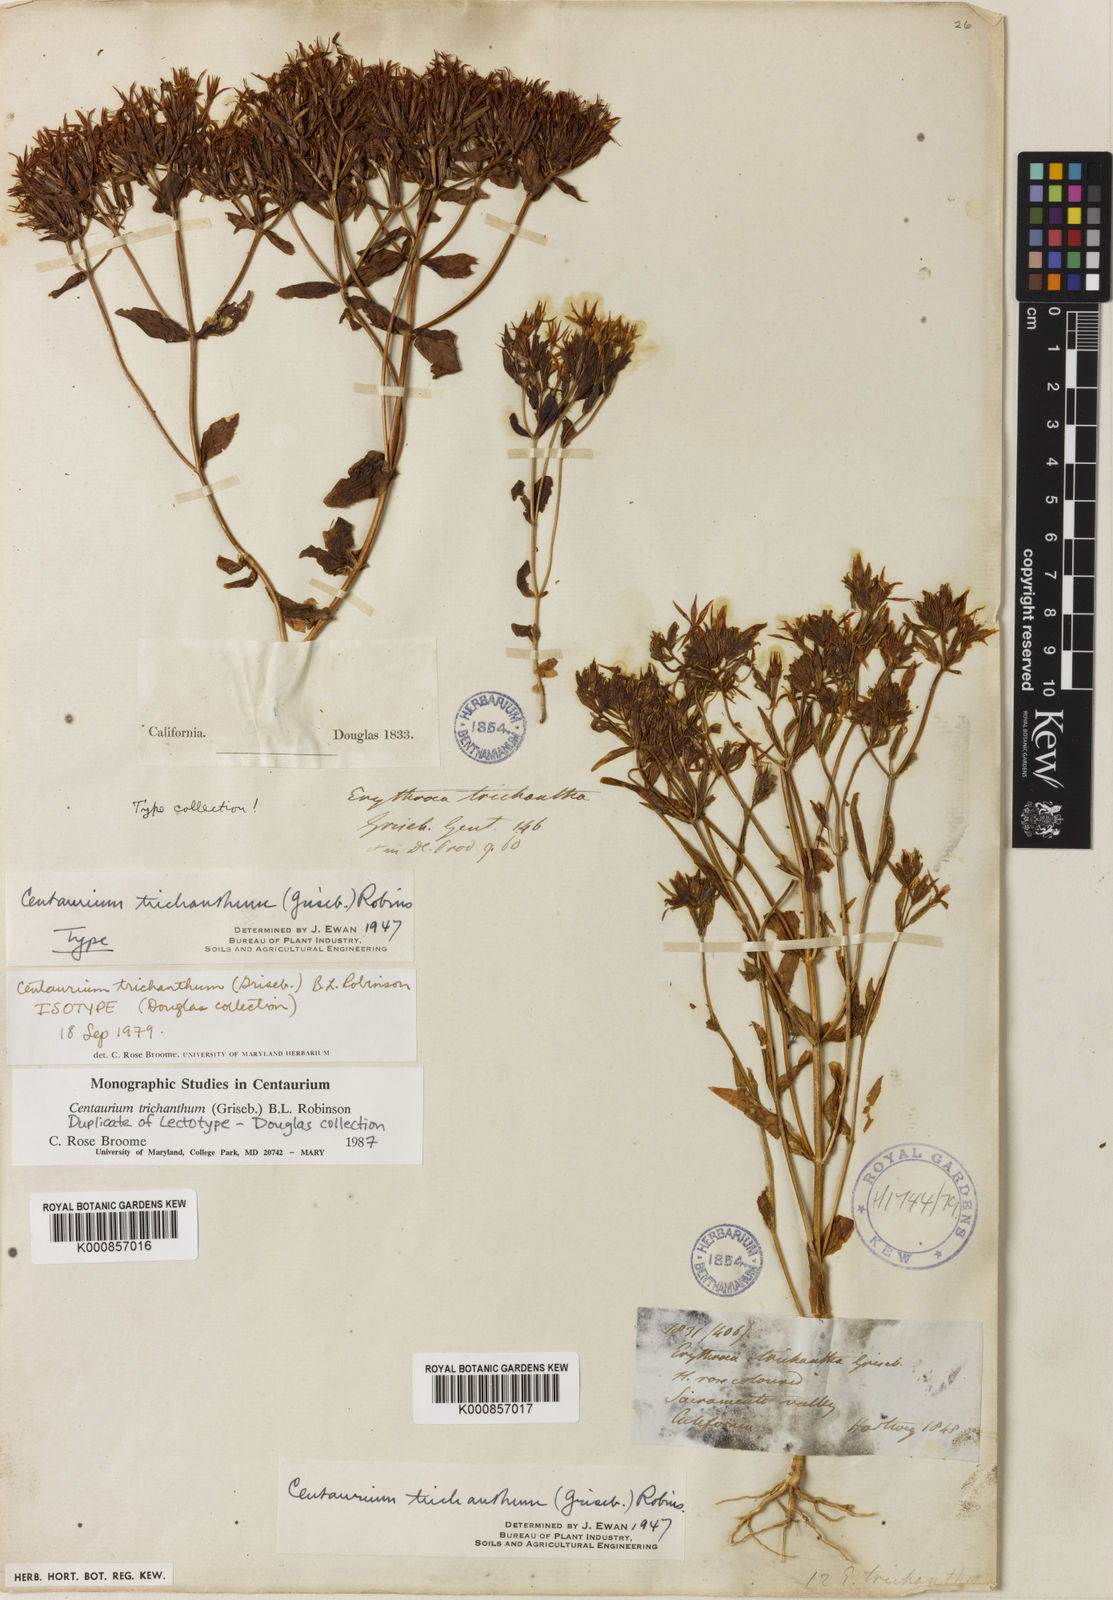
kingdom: Plantae
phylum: Tracheophyta
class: Magnoliopsida
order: Gentianales
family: Gentianaceae
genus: Zeltnera
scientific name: Zeltnera trichantha
